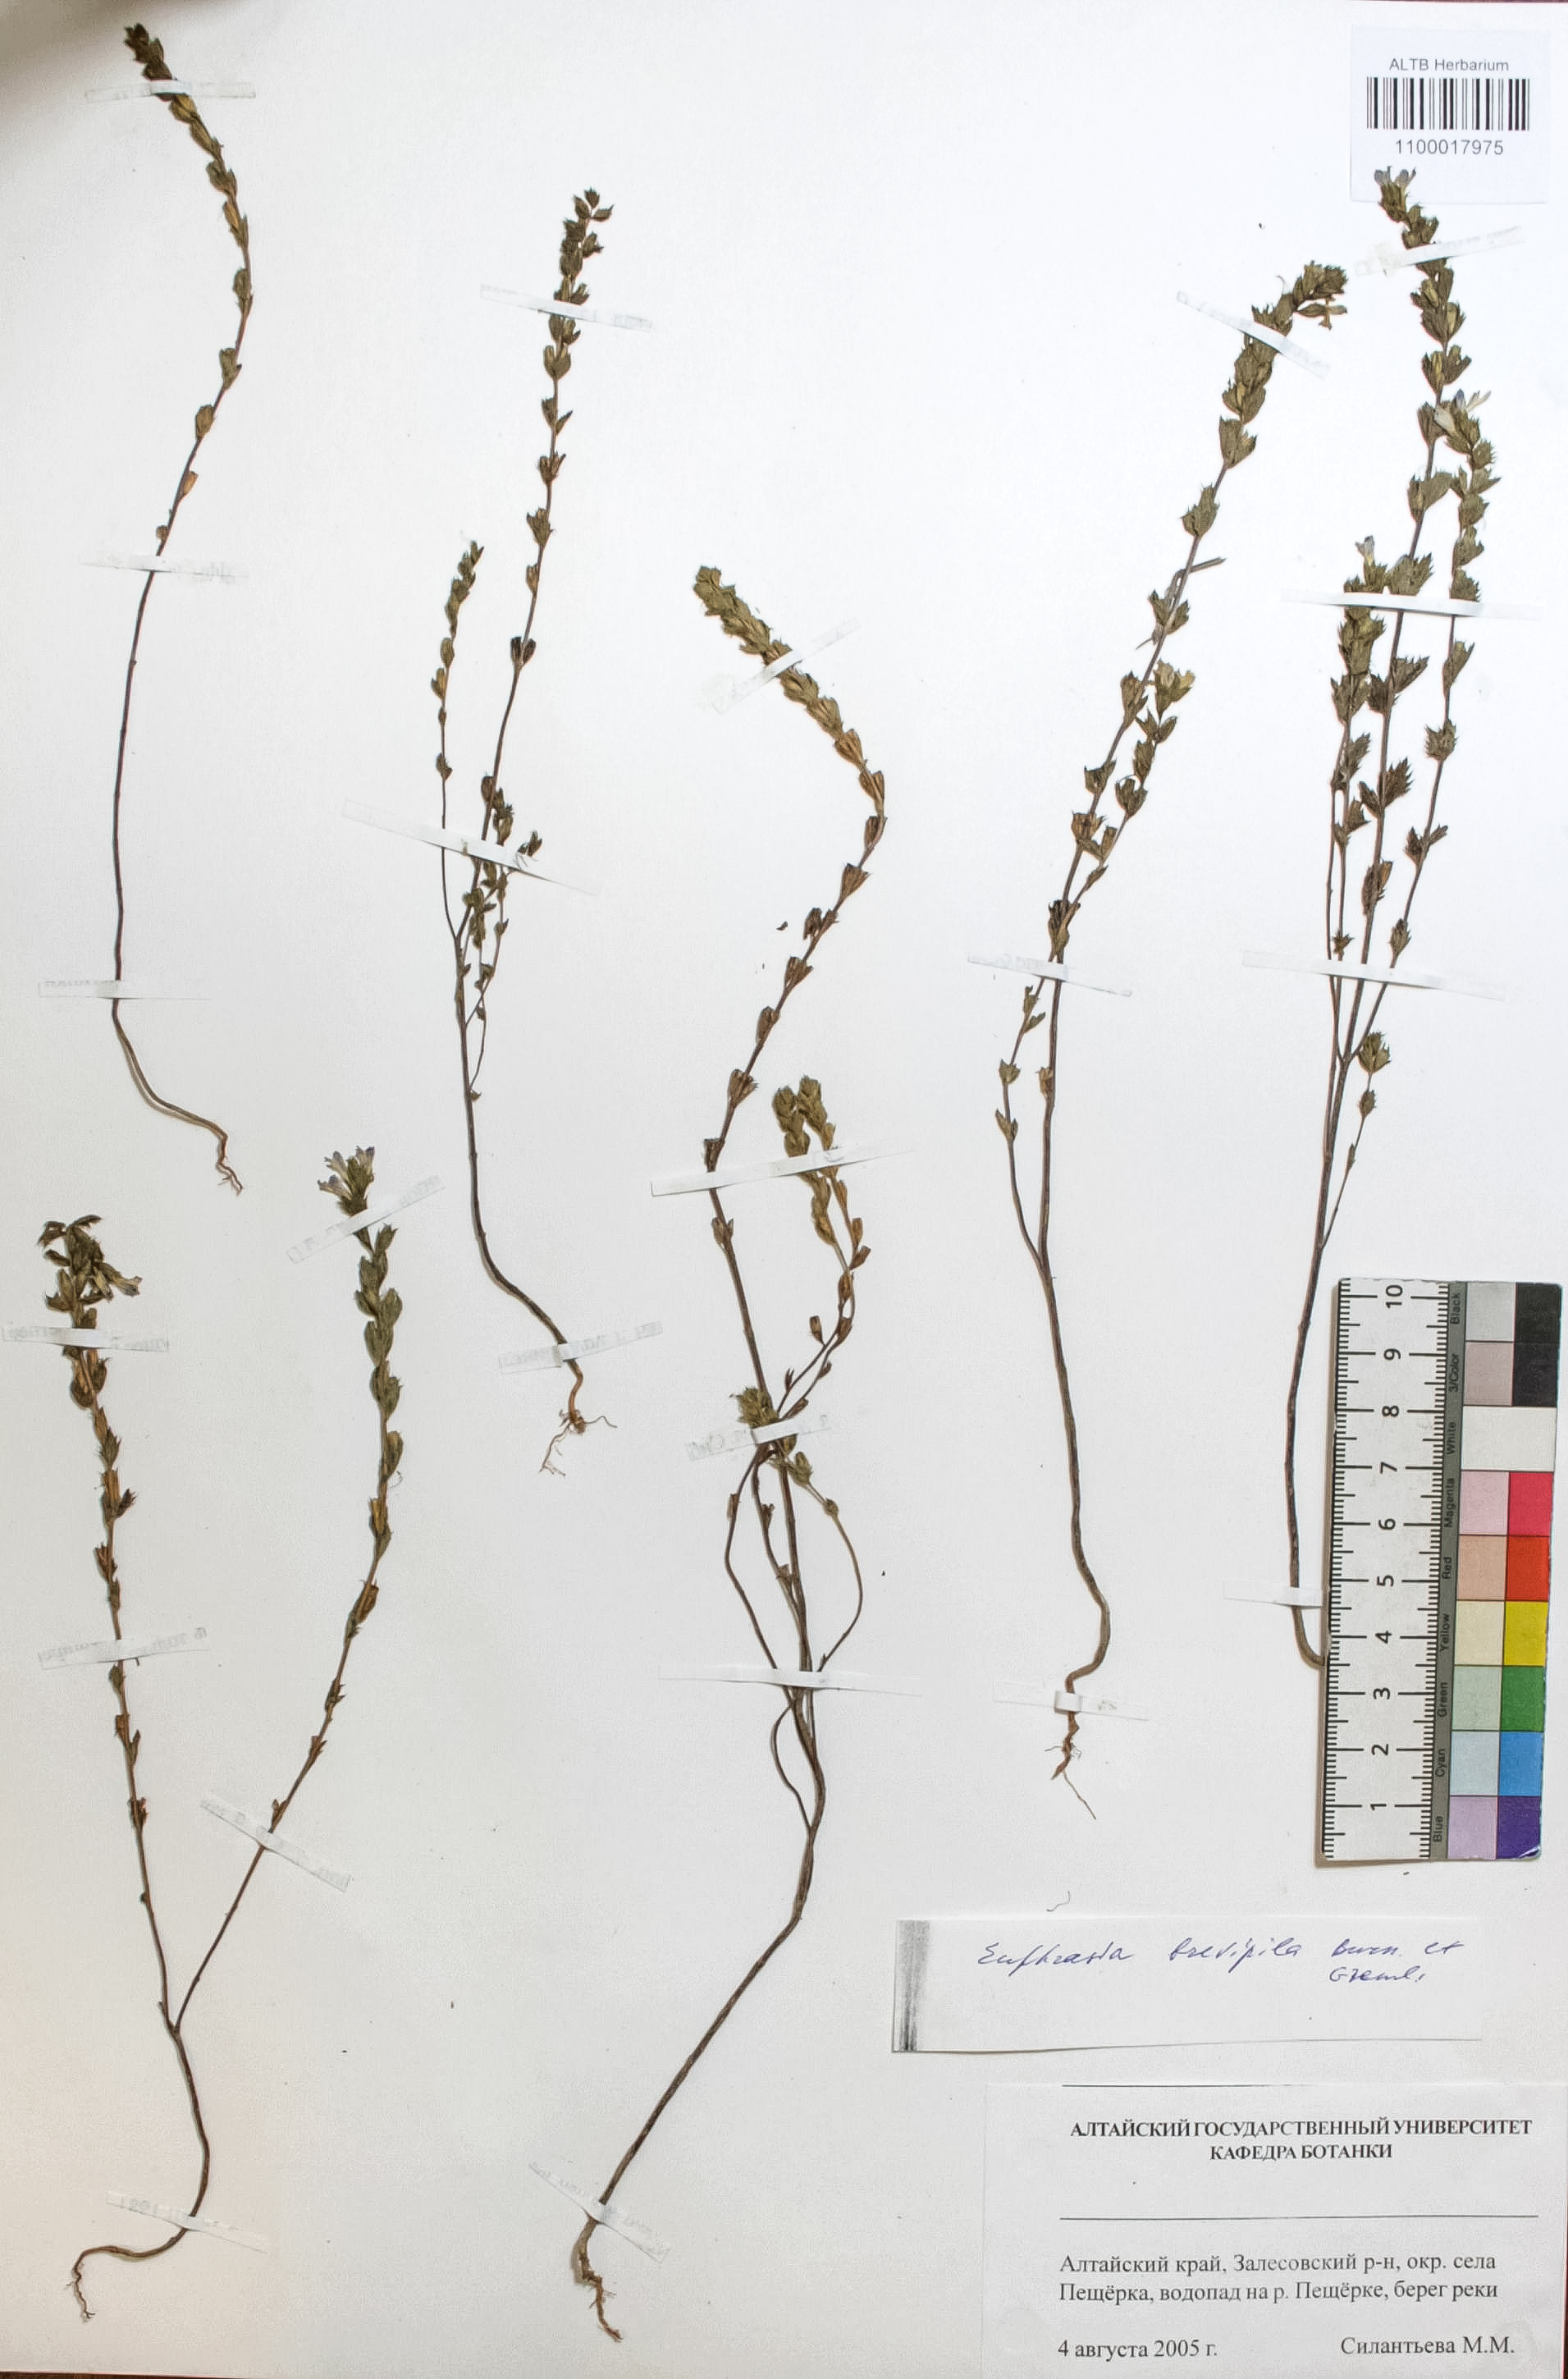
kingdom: Plantae
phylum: Tracheophyta
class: Magnoliopsida
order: Lamiales
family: Orobanchaceae
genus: Euphrasia
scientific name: Euphrasia vernalis
